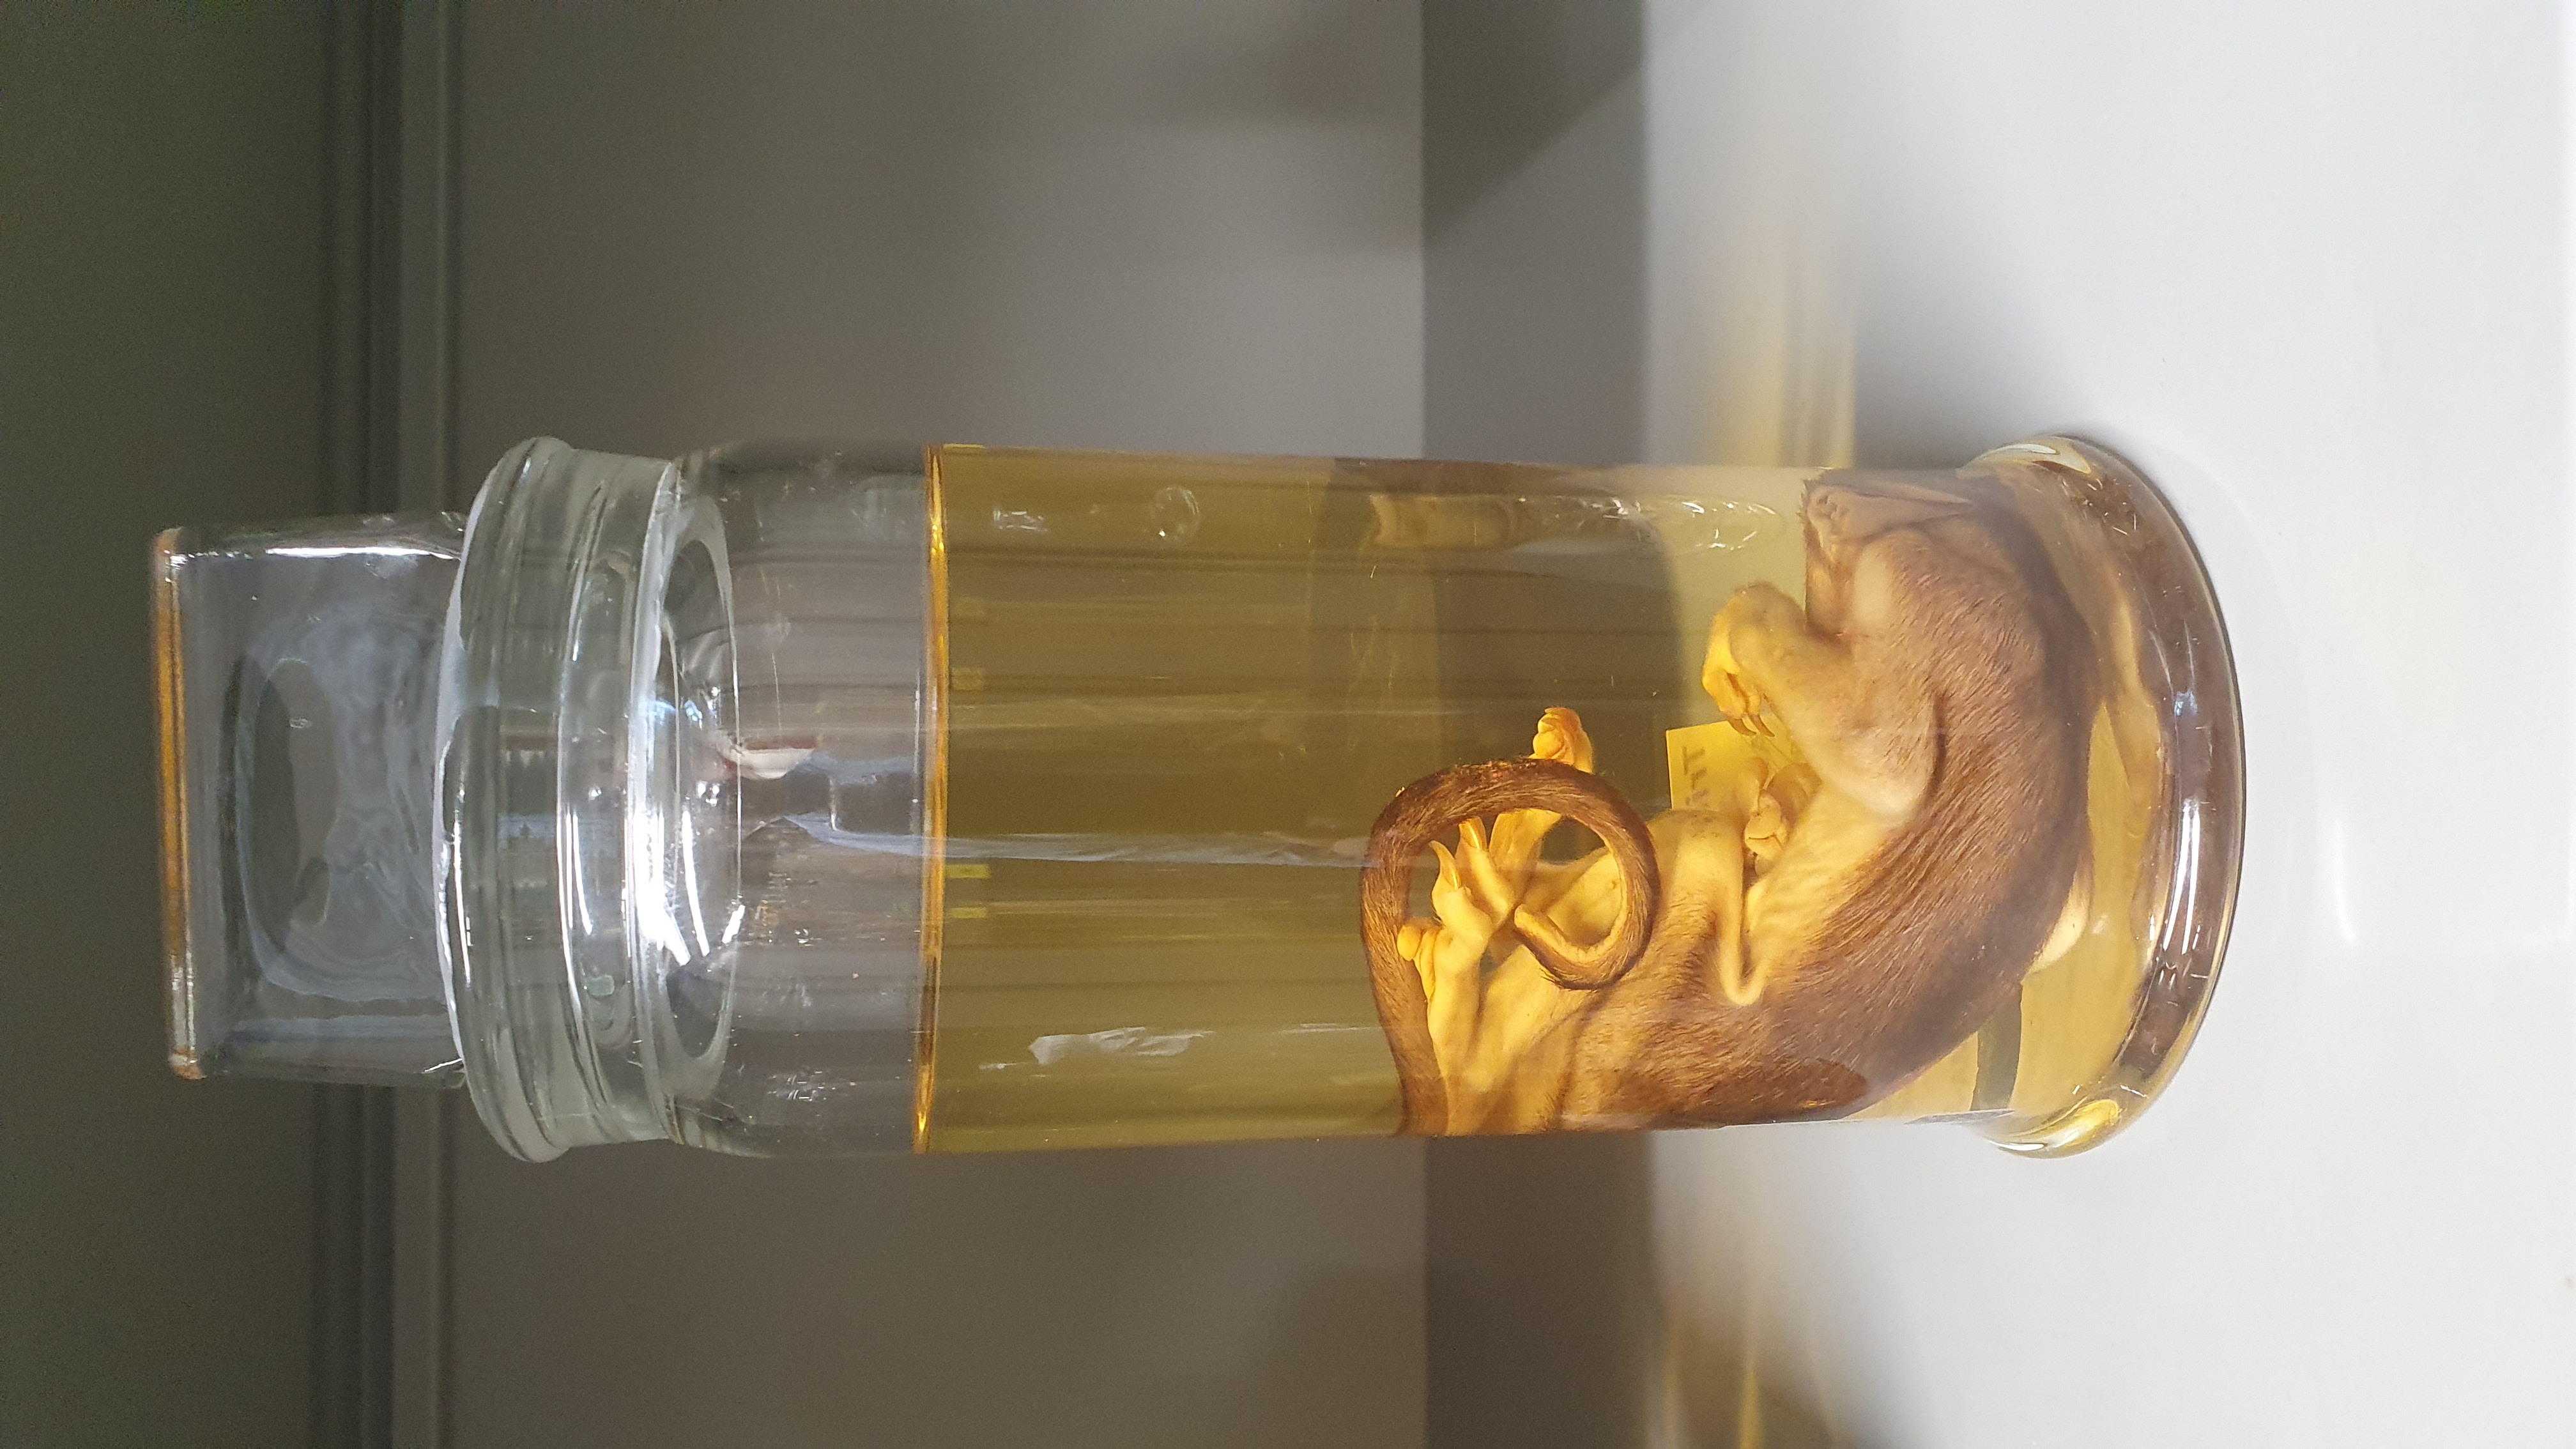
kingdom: Animalia
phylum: Chordata
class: Mammalia
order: Diprotodontia
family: Phalangeridae
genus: Trichosurus
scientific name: Trichosurus arnhemensis
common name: Northern brushtail
